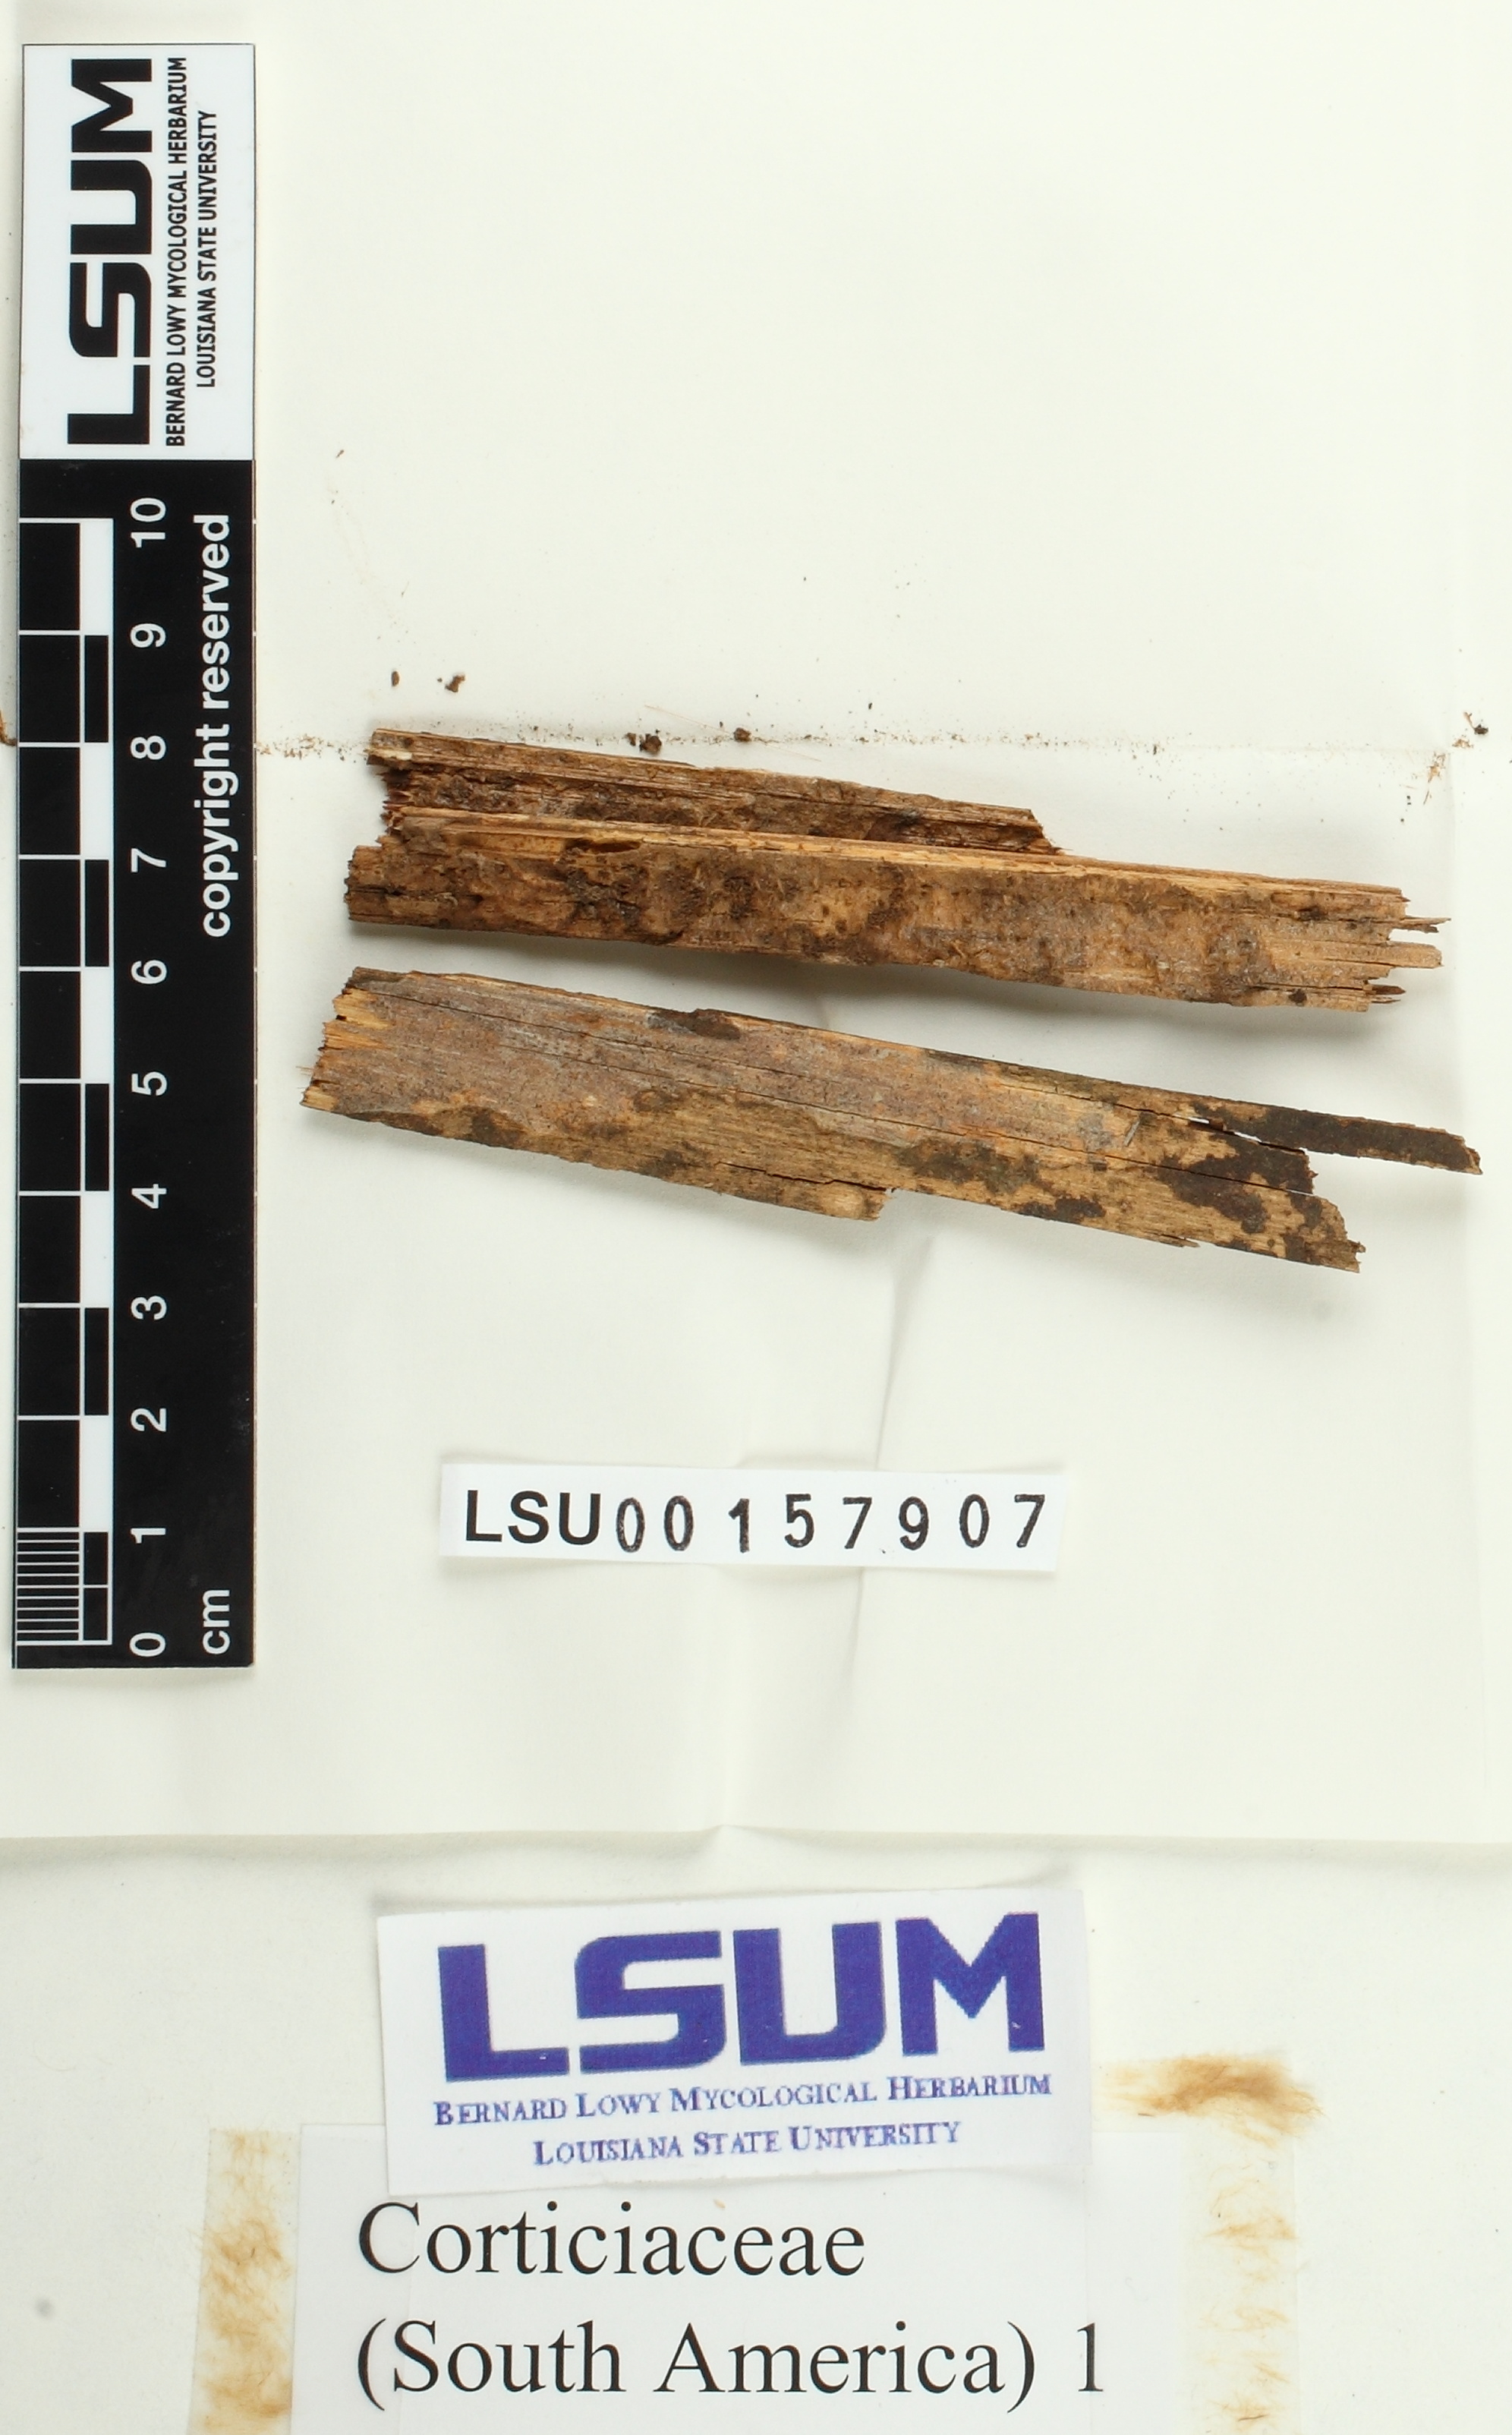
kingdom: Fungi
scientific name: Fungi
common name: Fungi
